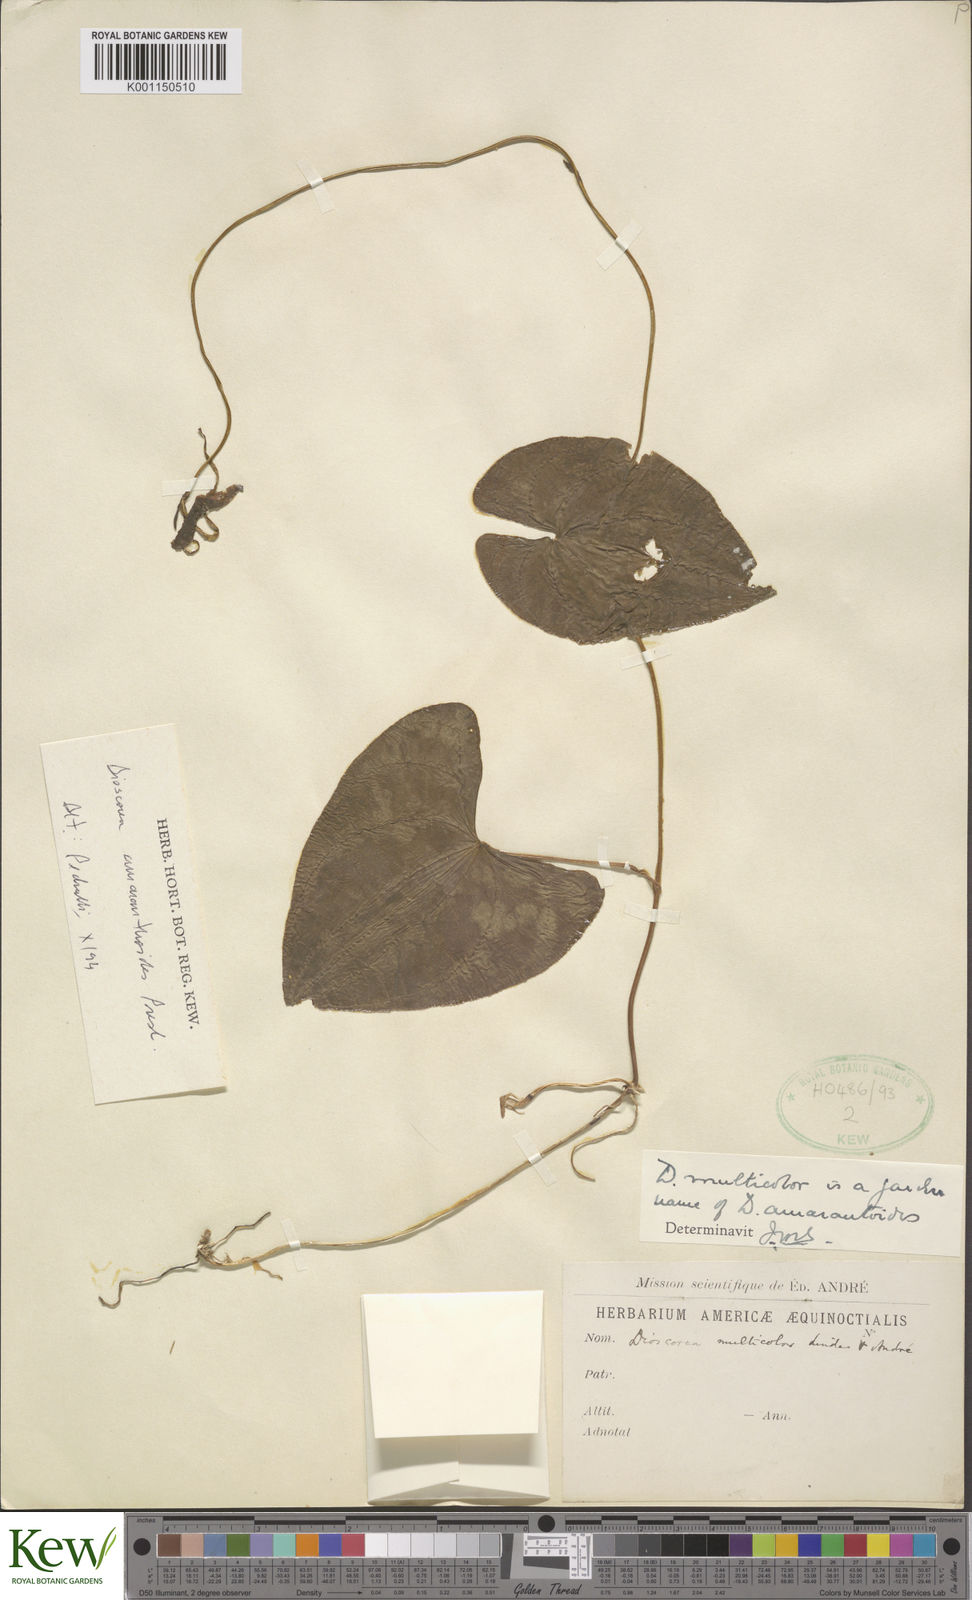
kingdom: Plantae
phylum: Tracheophyta
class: Liliopsida
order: Dioscoreales
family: Dioscoreaceae
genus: Dioscorea
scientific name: Dioscorea amaranthoides
